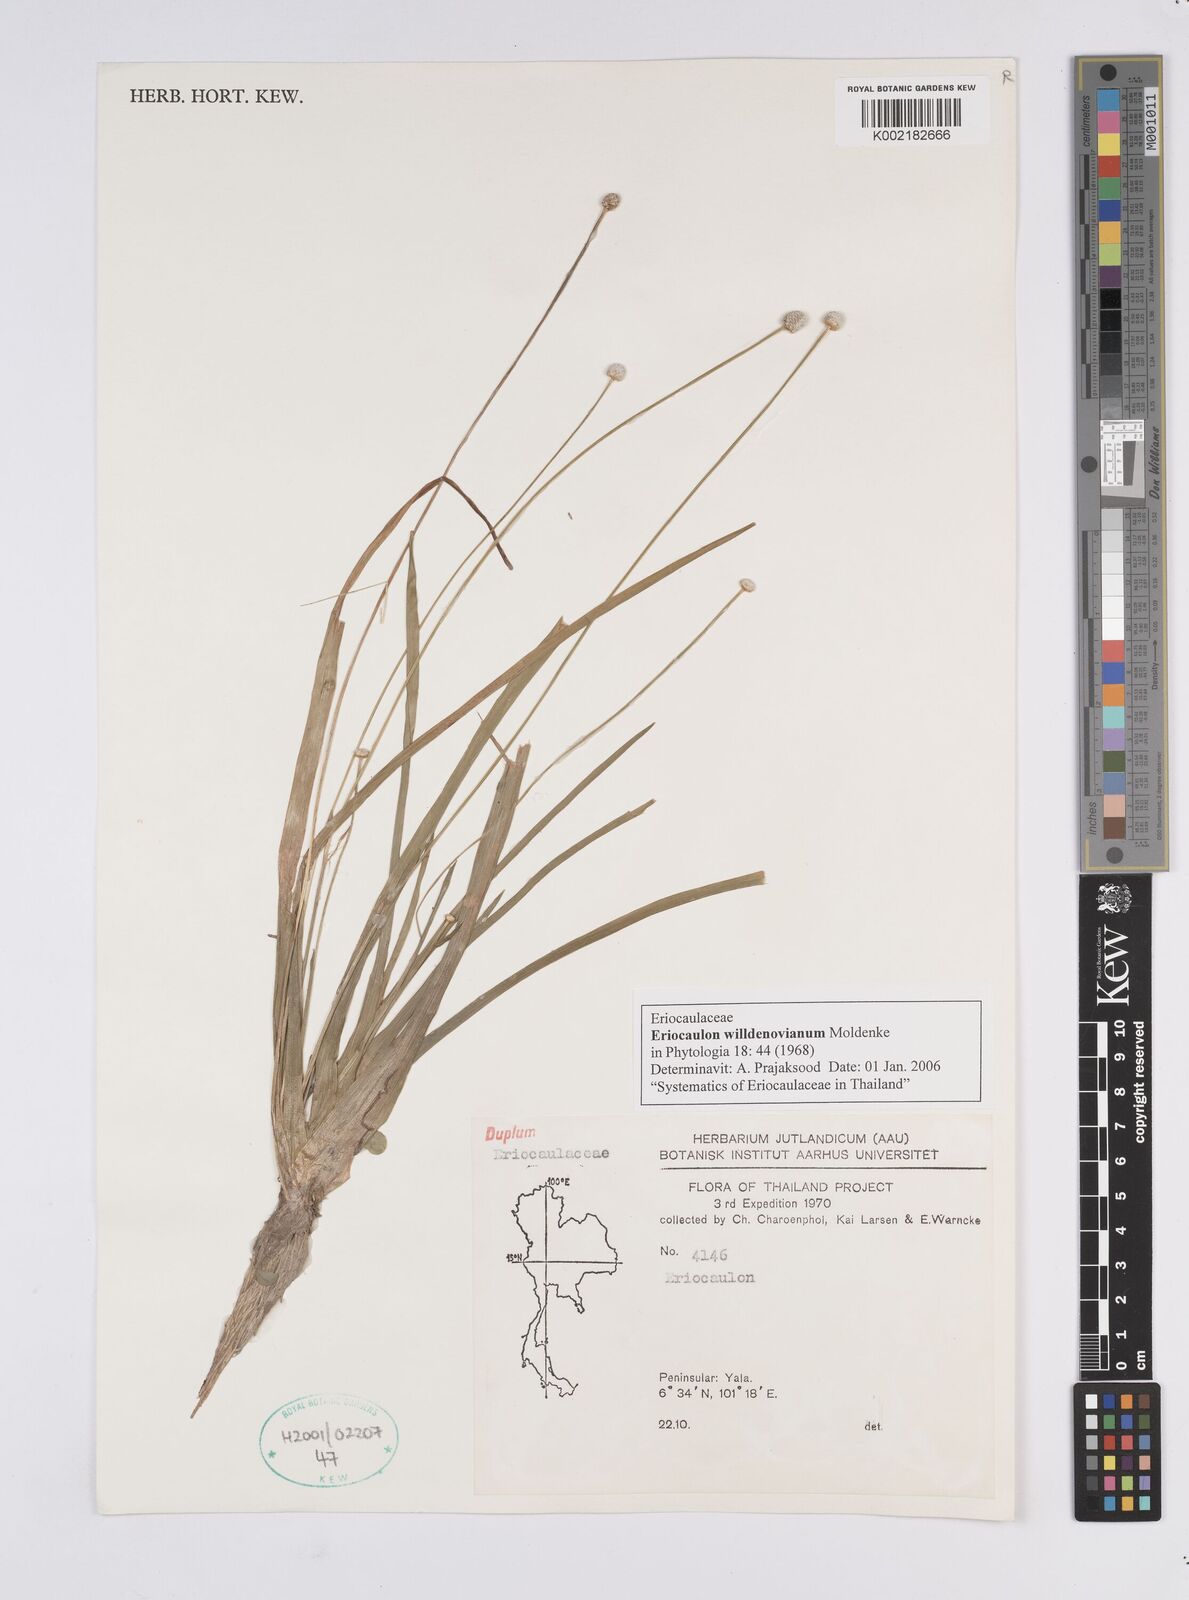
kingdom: Plantae
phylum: Tracheophyta
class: Liliopsida
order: Poales
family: Eriocaulaceae
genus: Eriocaulon
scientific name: Eriocaulon willdenovianum
